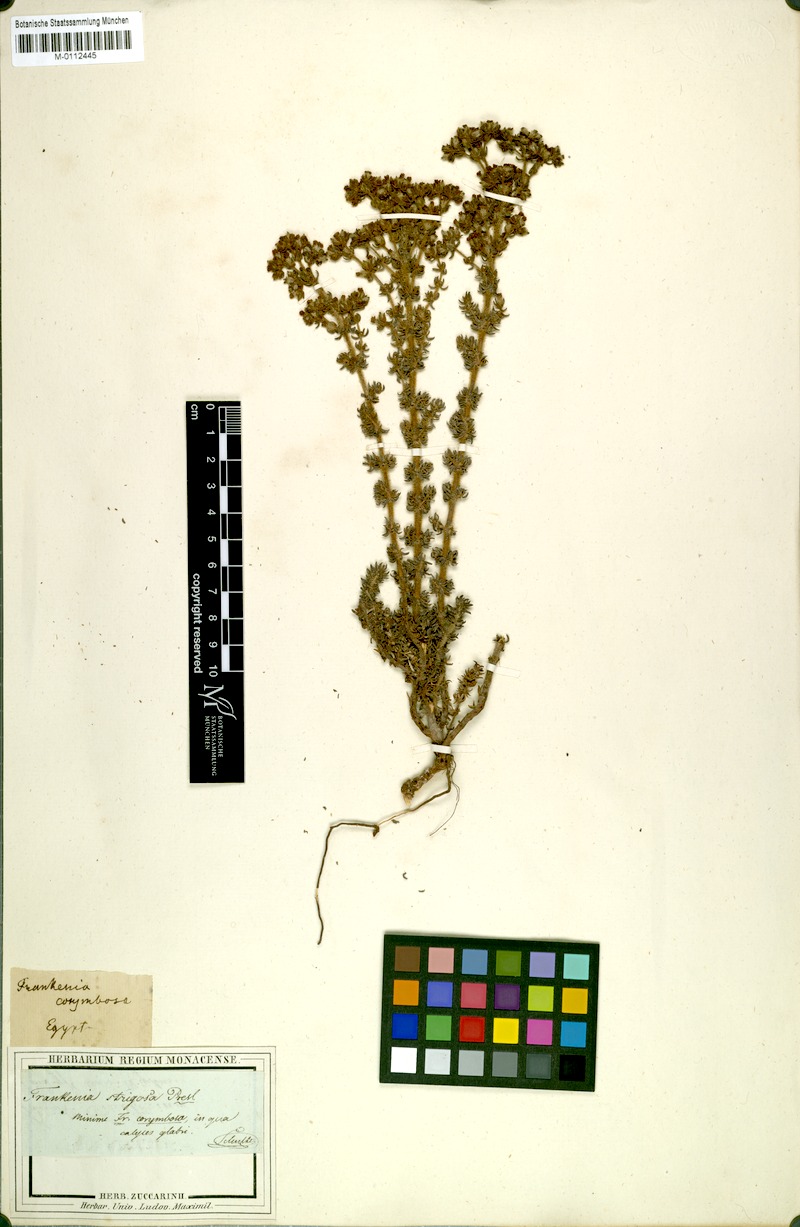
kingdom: Plantae
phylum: Tracheophyta
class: Magnoliopsida
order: Caryophyllales
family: Frankeniaceae
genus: Frankenia
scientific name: Frankenia hirsuta
